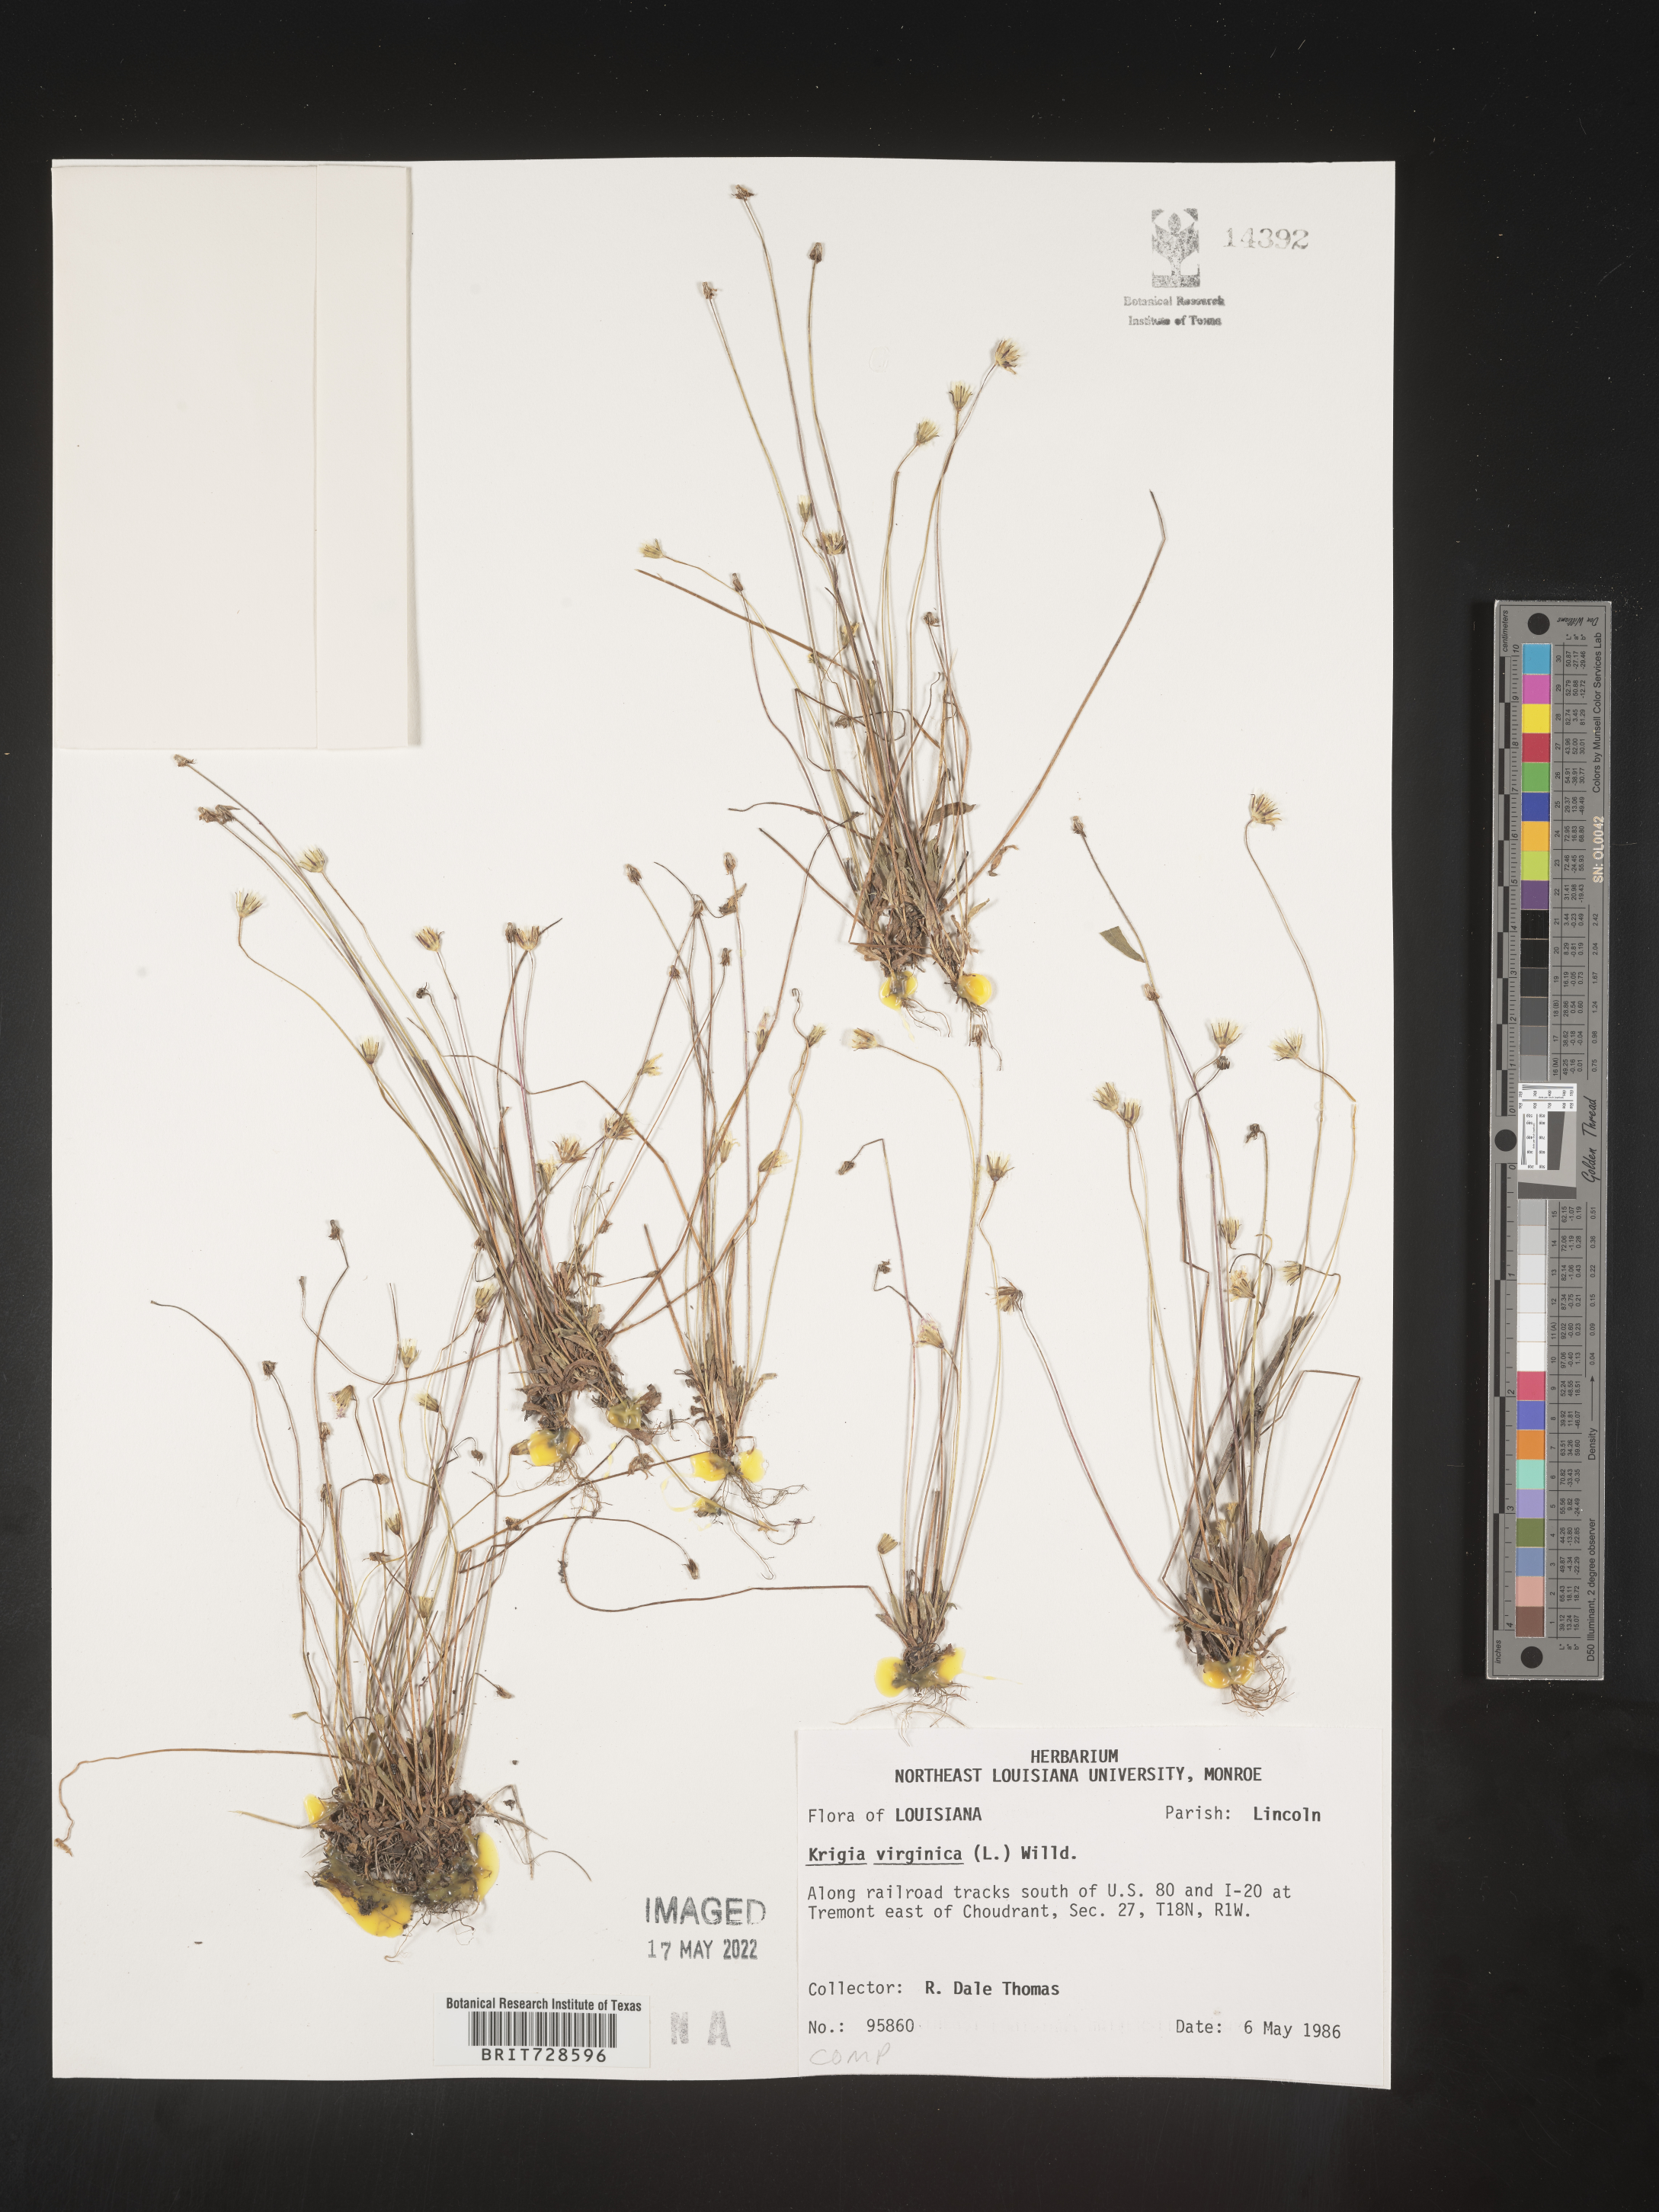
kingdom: Plantae
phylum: Tracheophyta
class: Magnoliopsida
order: Asterales
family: Asteraceae
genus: Krigia
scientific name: Krigia virginica
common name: Virginia dwarf-dandelion
